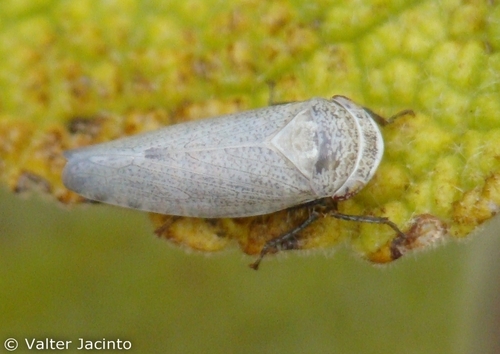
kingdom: Animalia
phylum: Arthropoda
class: Insecta
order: Hemiptera
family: Cicadellidae
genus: Selenocephalus
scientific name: Selenocephalus
